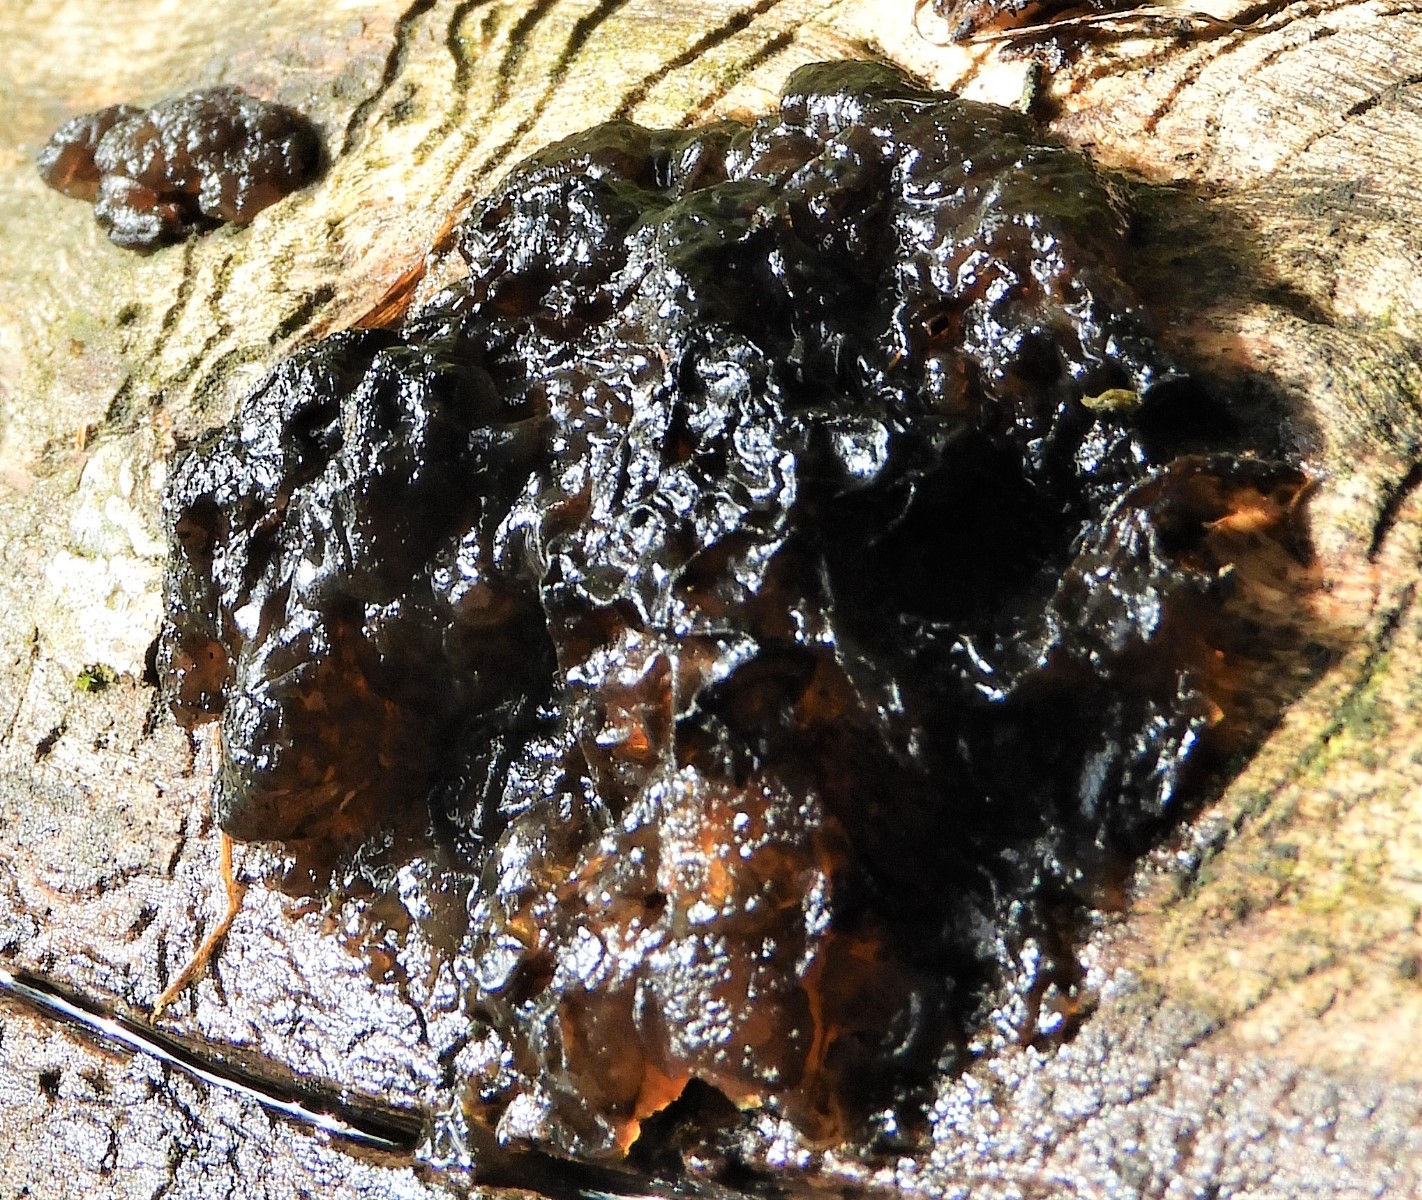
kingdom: Fungi
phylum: Basidiomycota
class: Agaricomycetes
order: Auriculariales
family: Auriculariaceae
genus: Exidia
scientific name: Exidia nigricans
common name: almindelig bævretop
